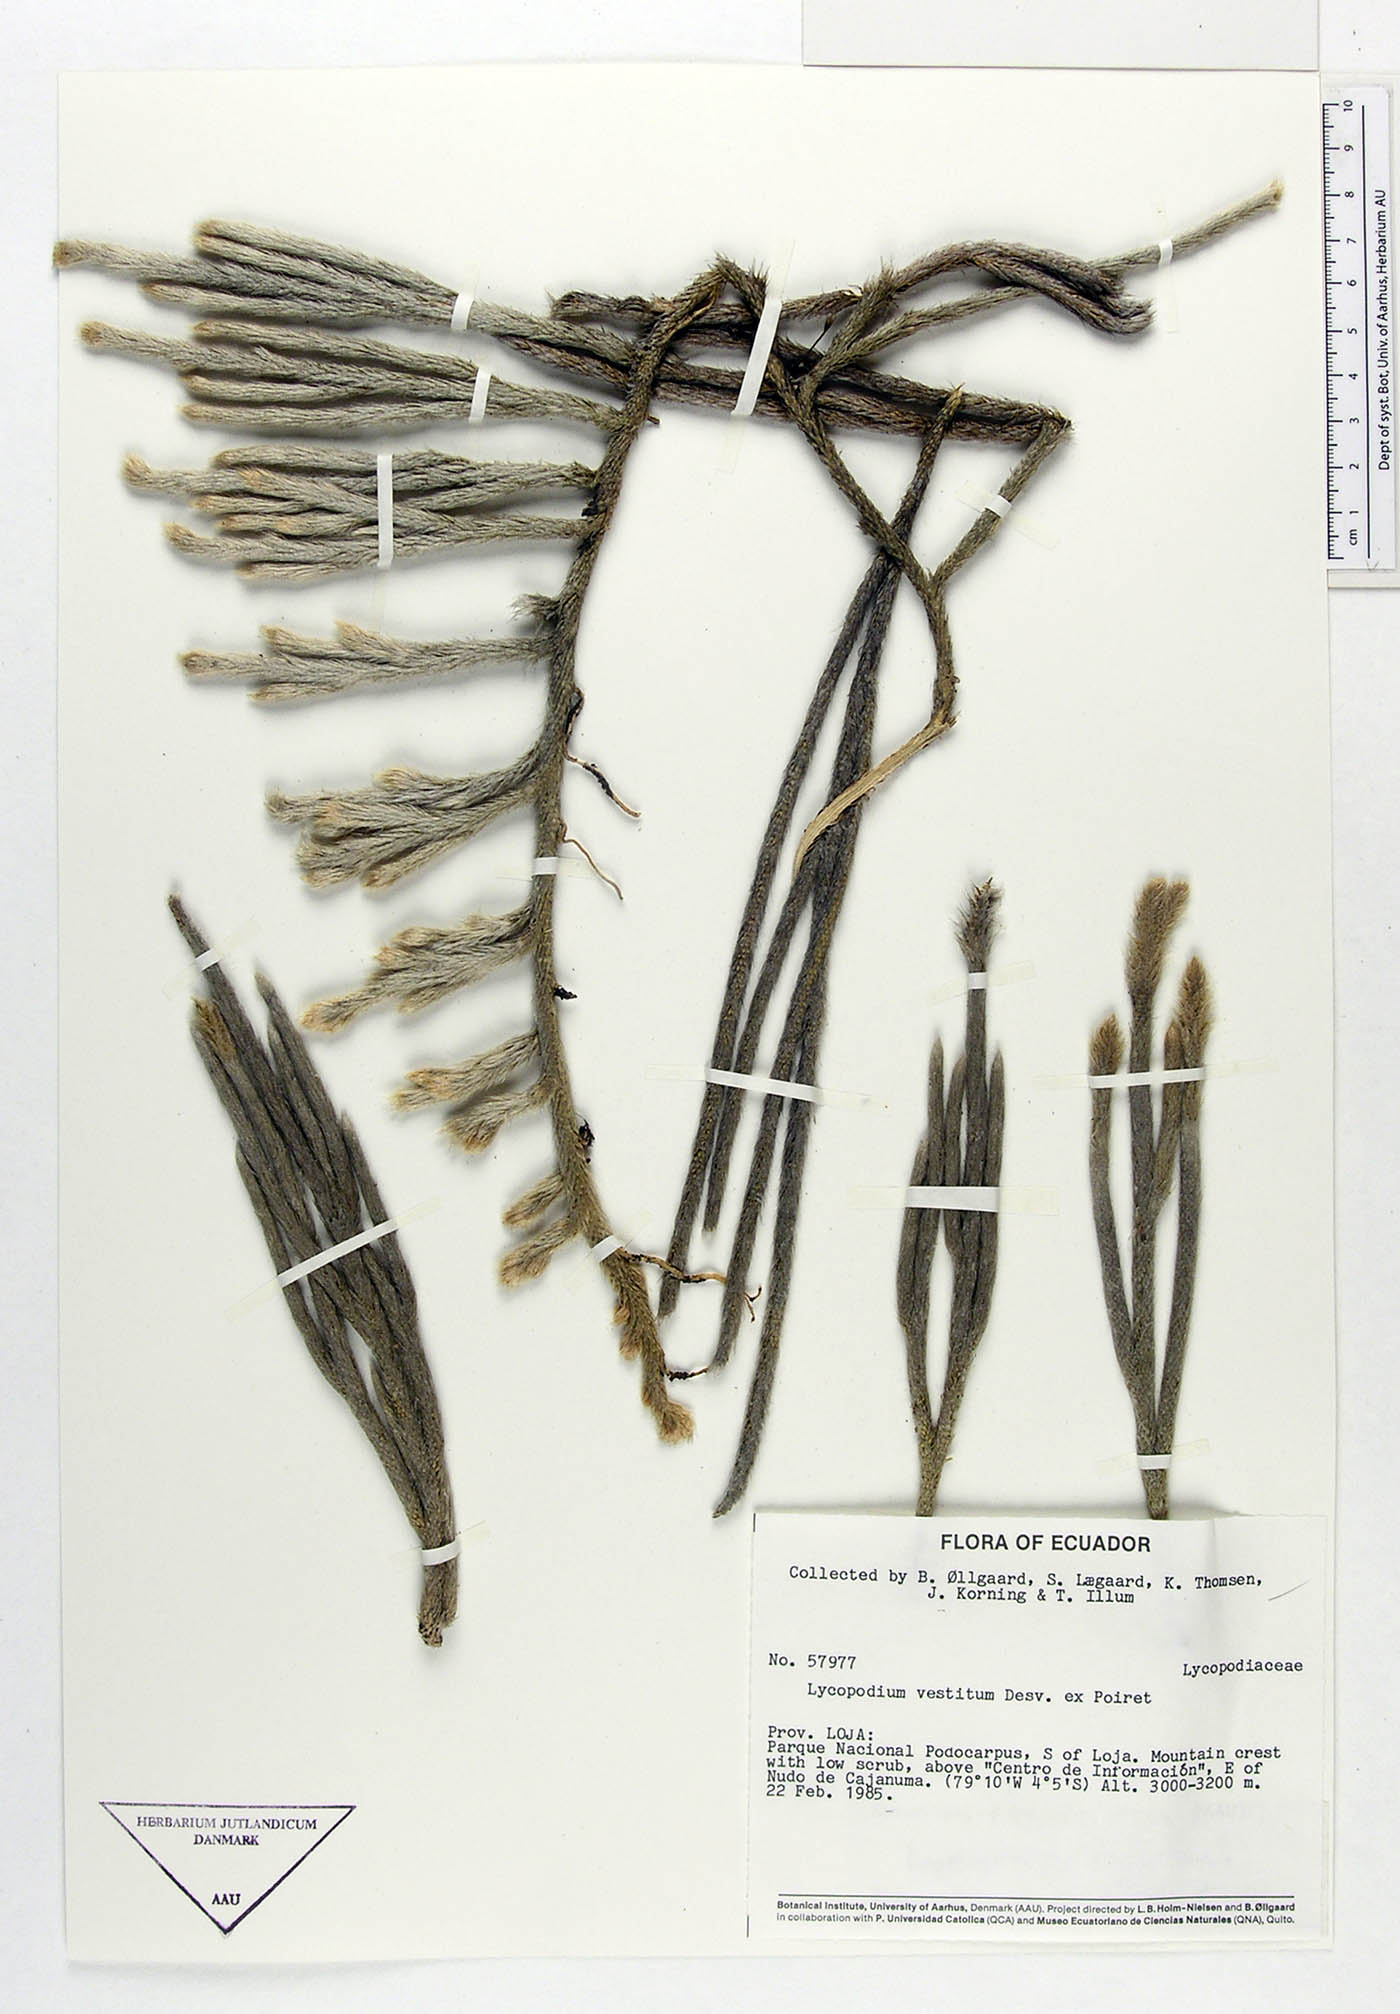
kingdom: Plantae
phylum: Tracheophyta
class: Lycopodiopsida
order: Lycopodiales
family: Lycopodiaceae
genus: Lycopodium
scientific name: Lycopodium vestitum
